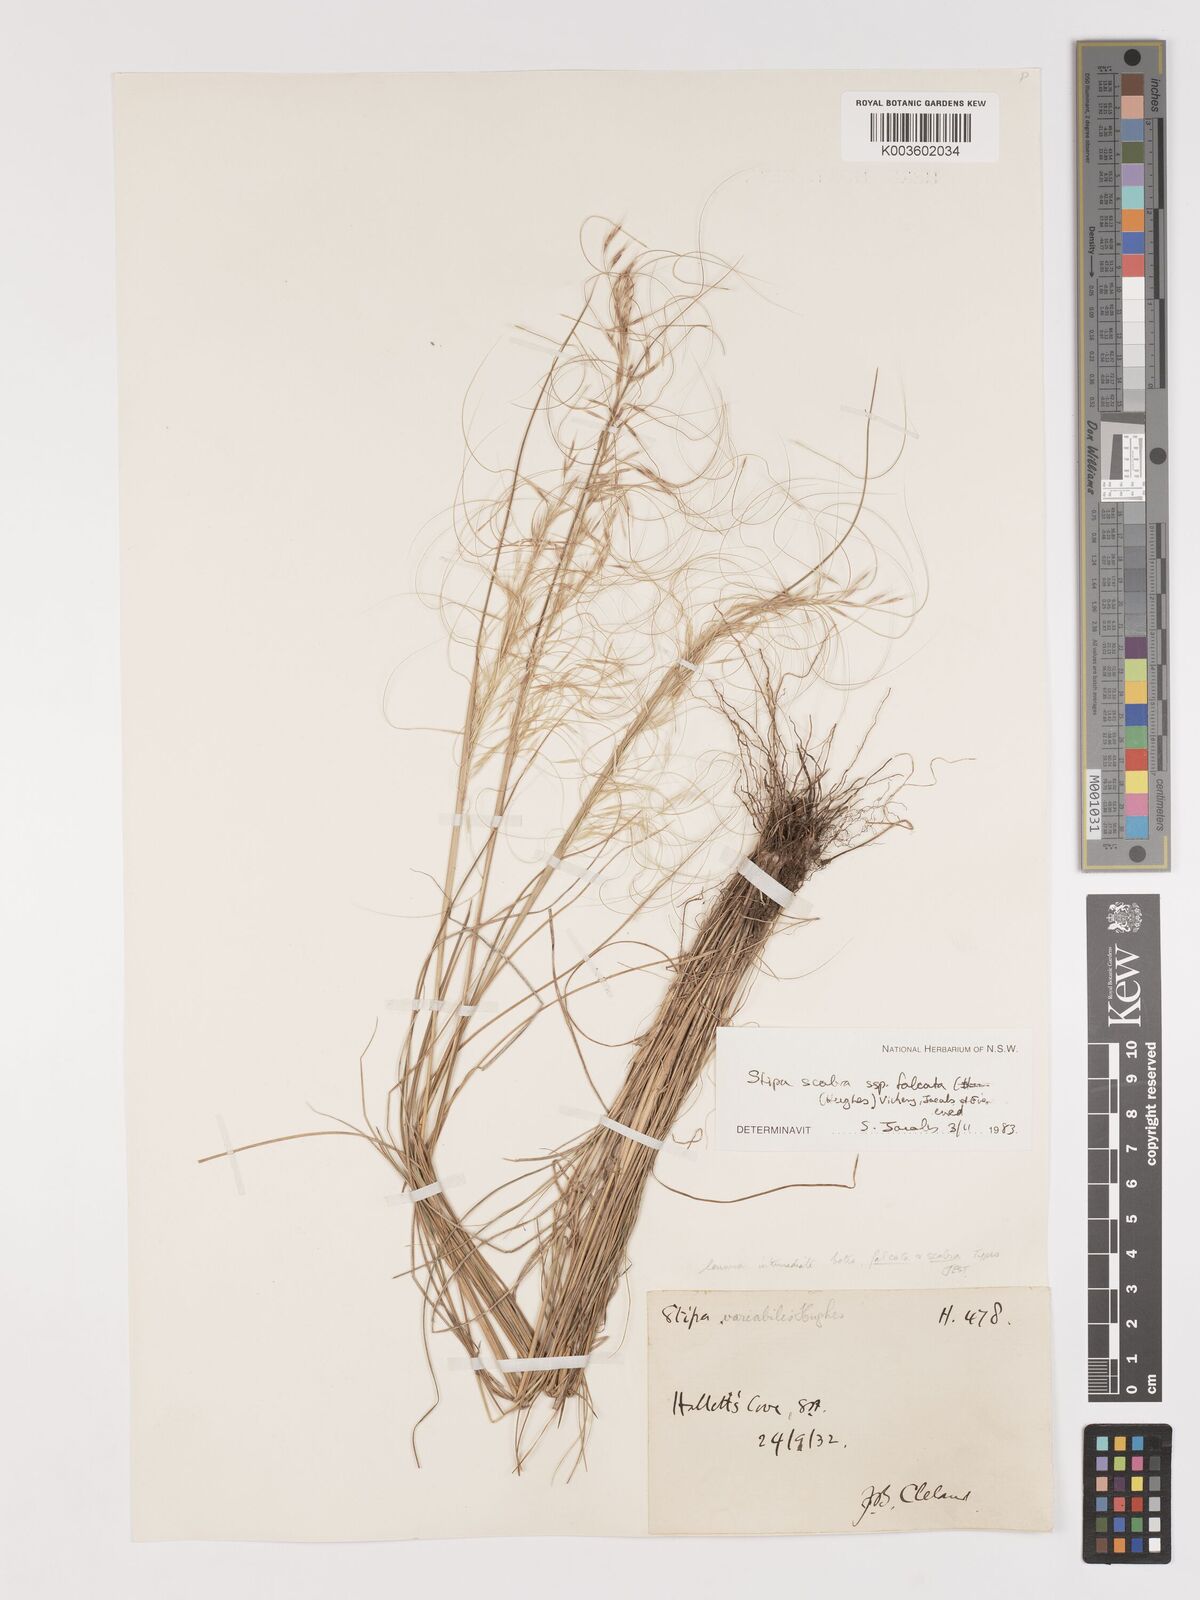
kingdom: Plantae
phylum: Tracheophyta
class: Liliopsida
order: Poales
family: Poaceae
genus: Austrostipa
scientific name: Austrostipa scabra
